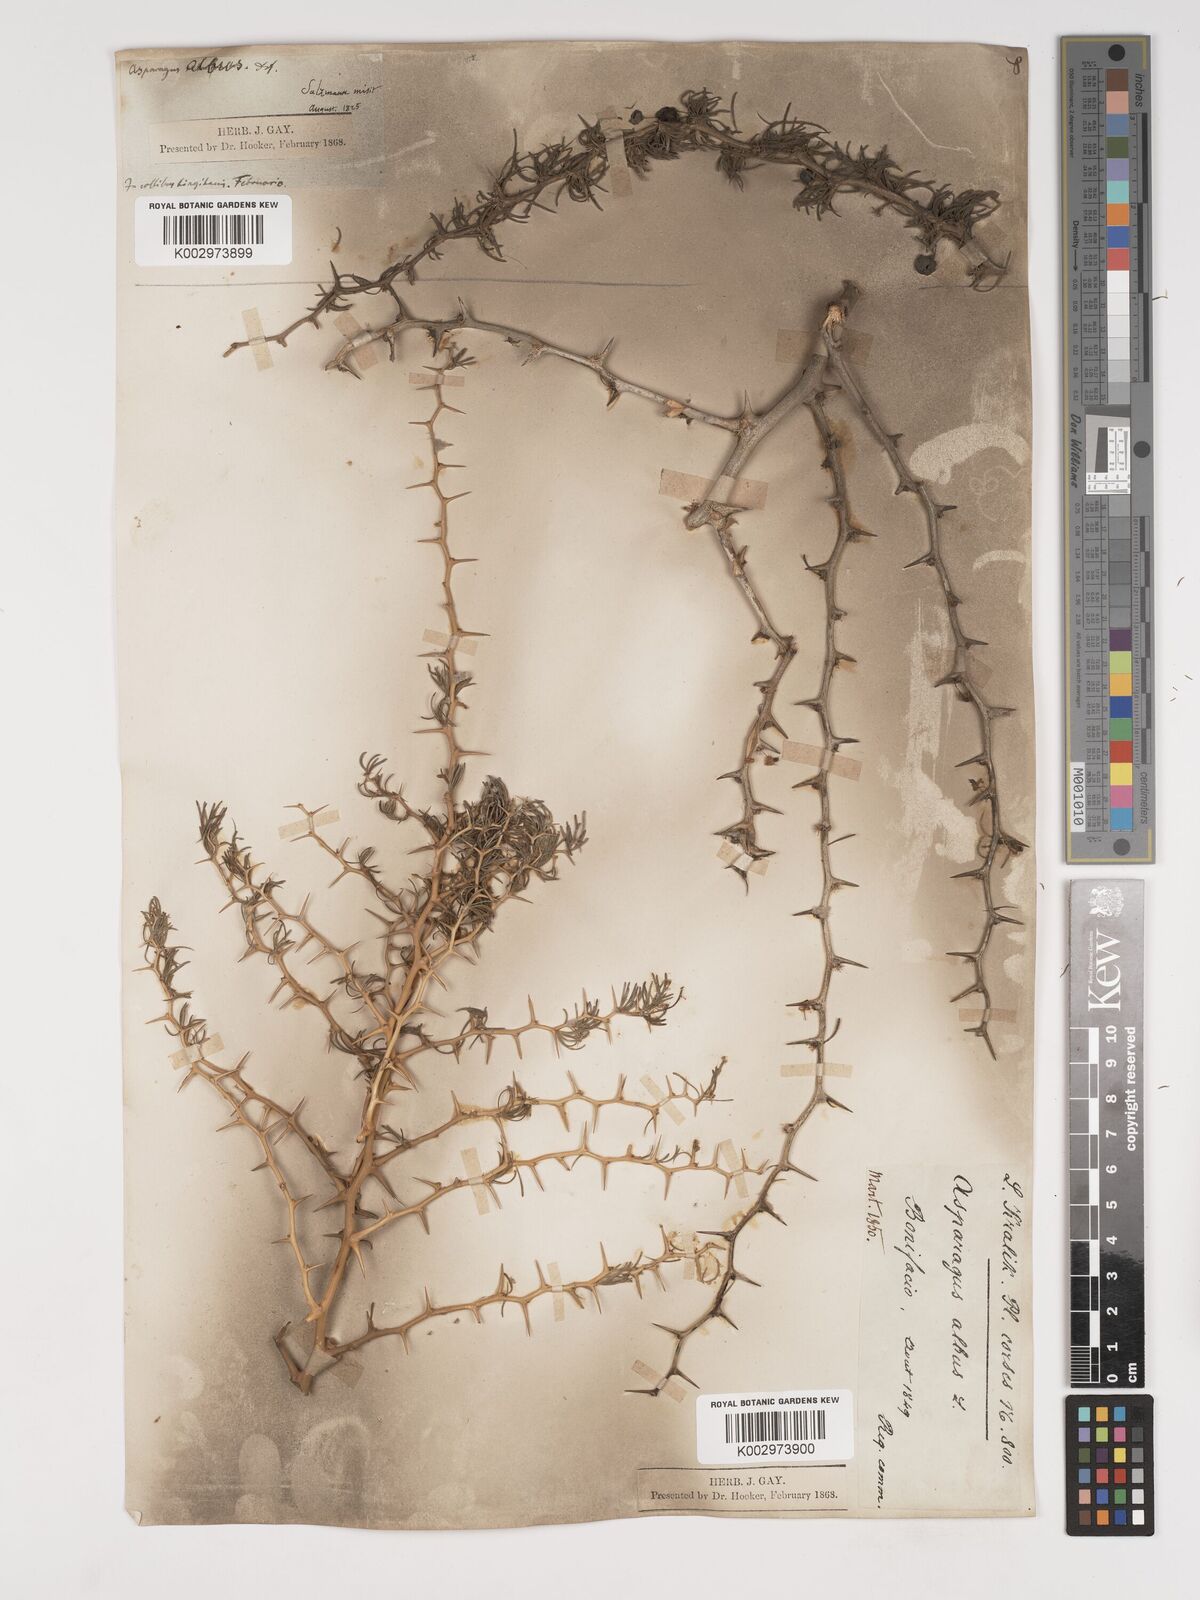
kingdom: Plantae
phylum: Tracheophyta
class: Liliopsida
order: Asparagales
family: Asparagaceae
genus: Asparagus
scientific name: Asparagus albus
